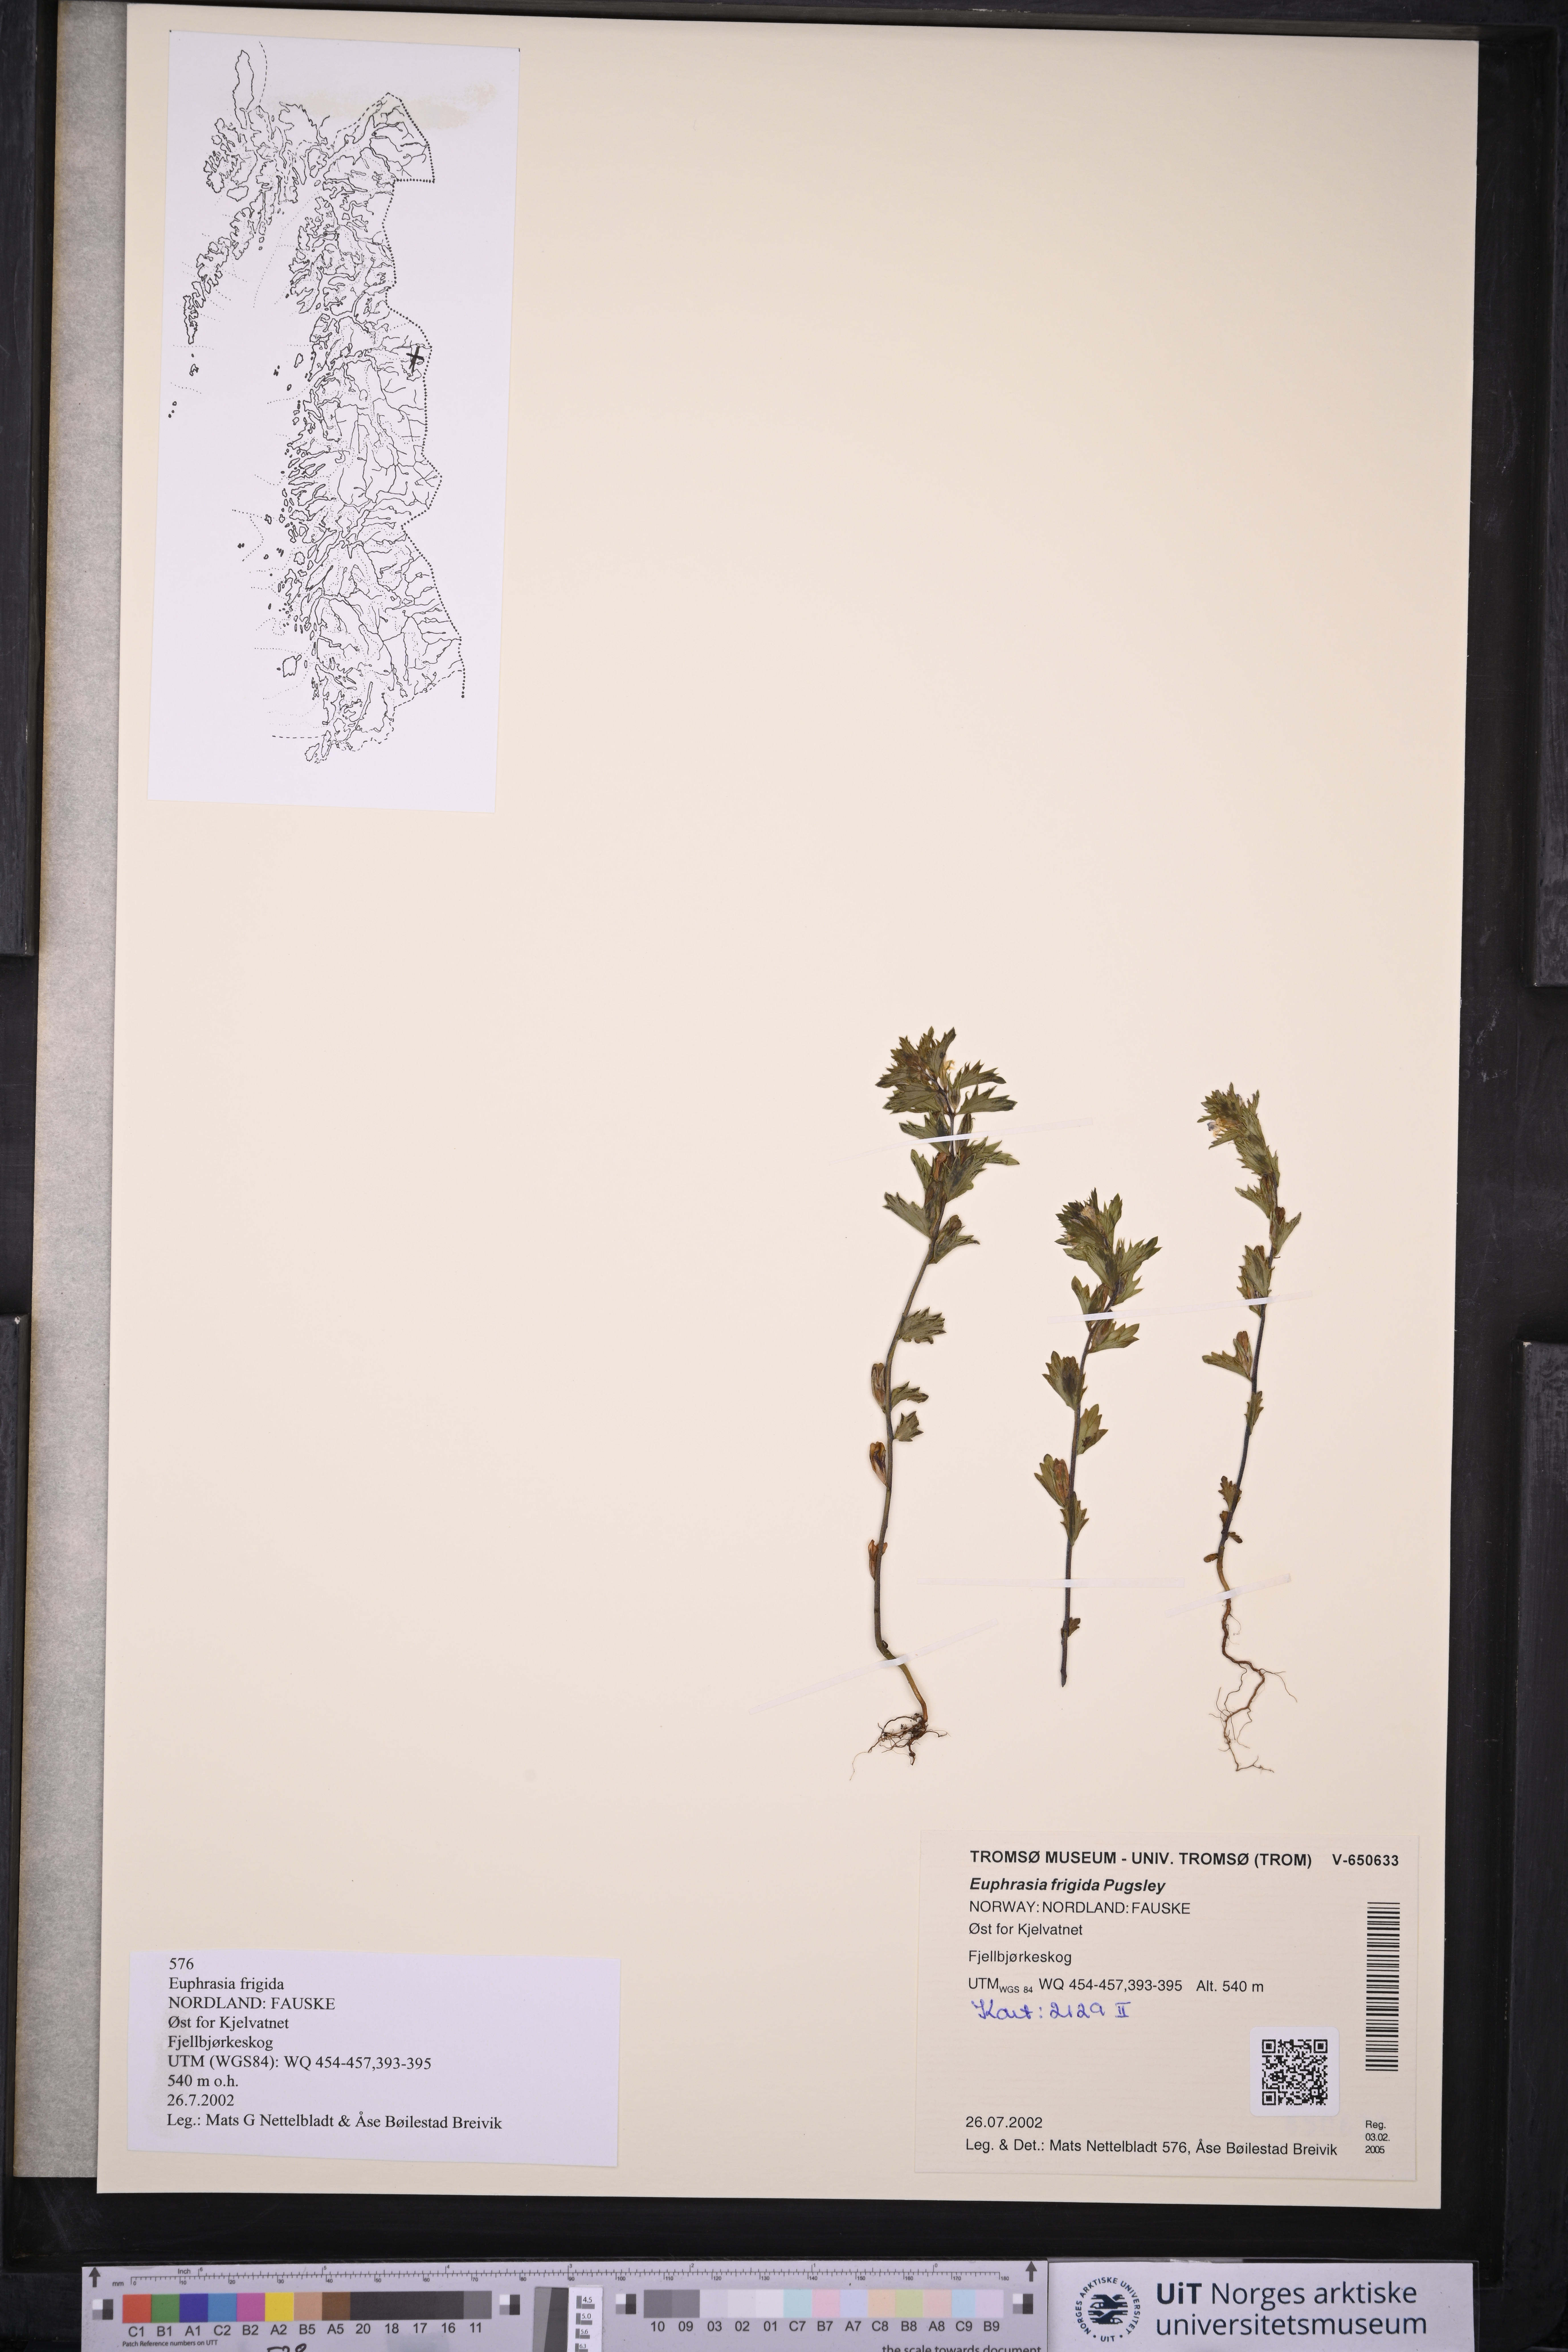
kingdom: Plantae
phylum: Tracheophyta
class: Magnoliopsida
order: Lamiales
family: Orobanchaceae
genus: Euphrasia
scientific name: Euphrasia frigida
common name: An eyebright
